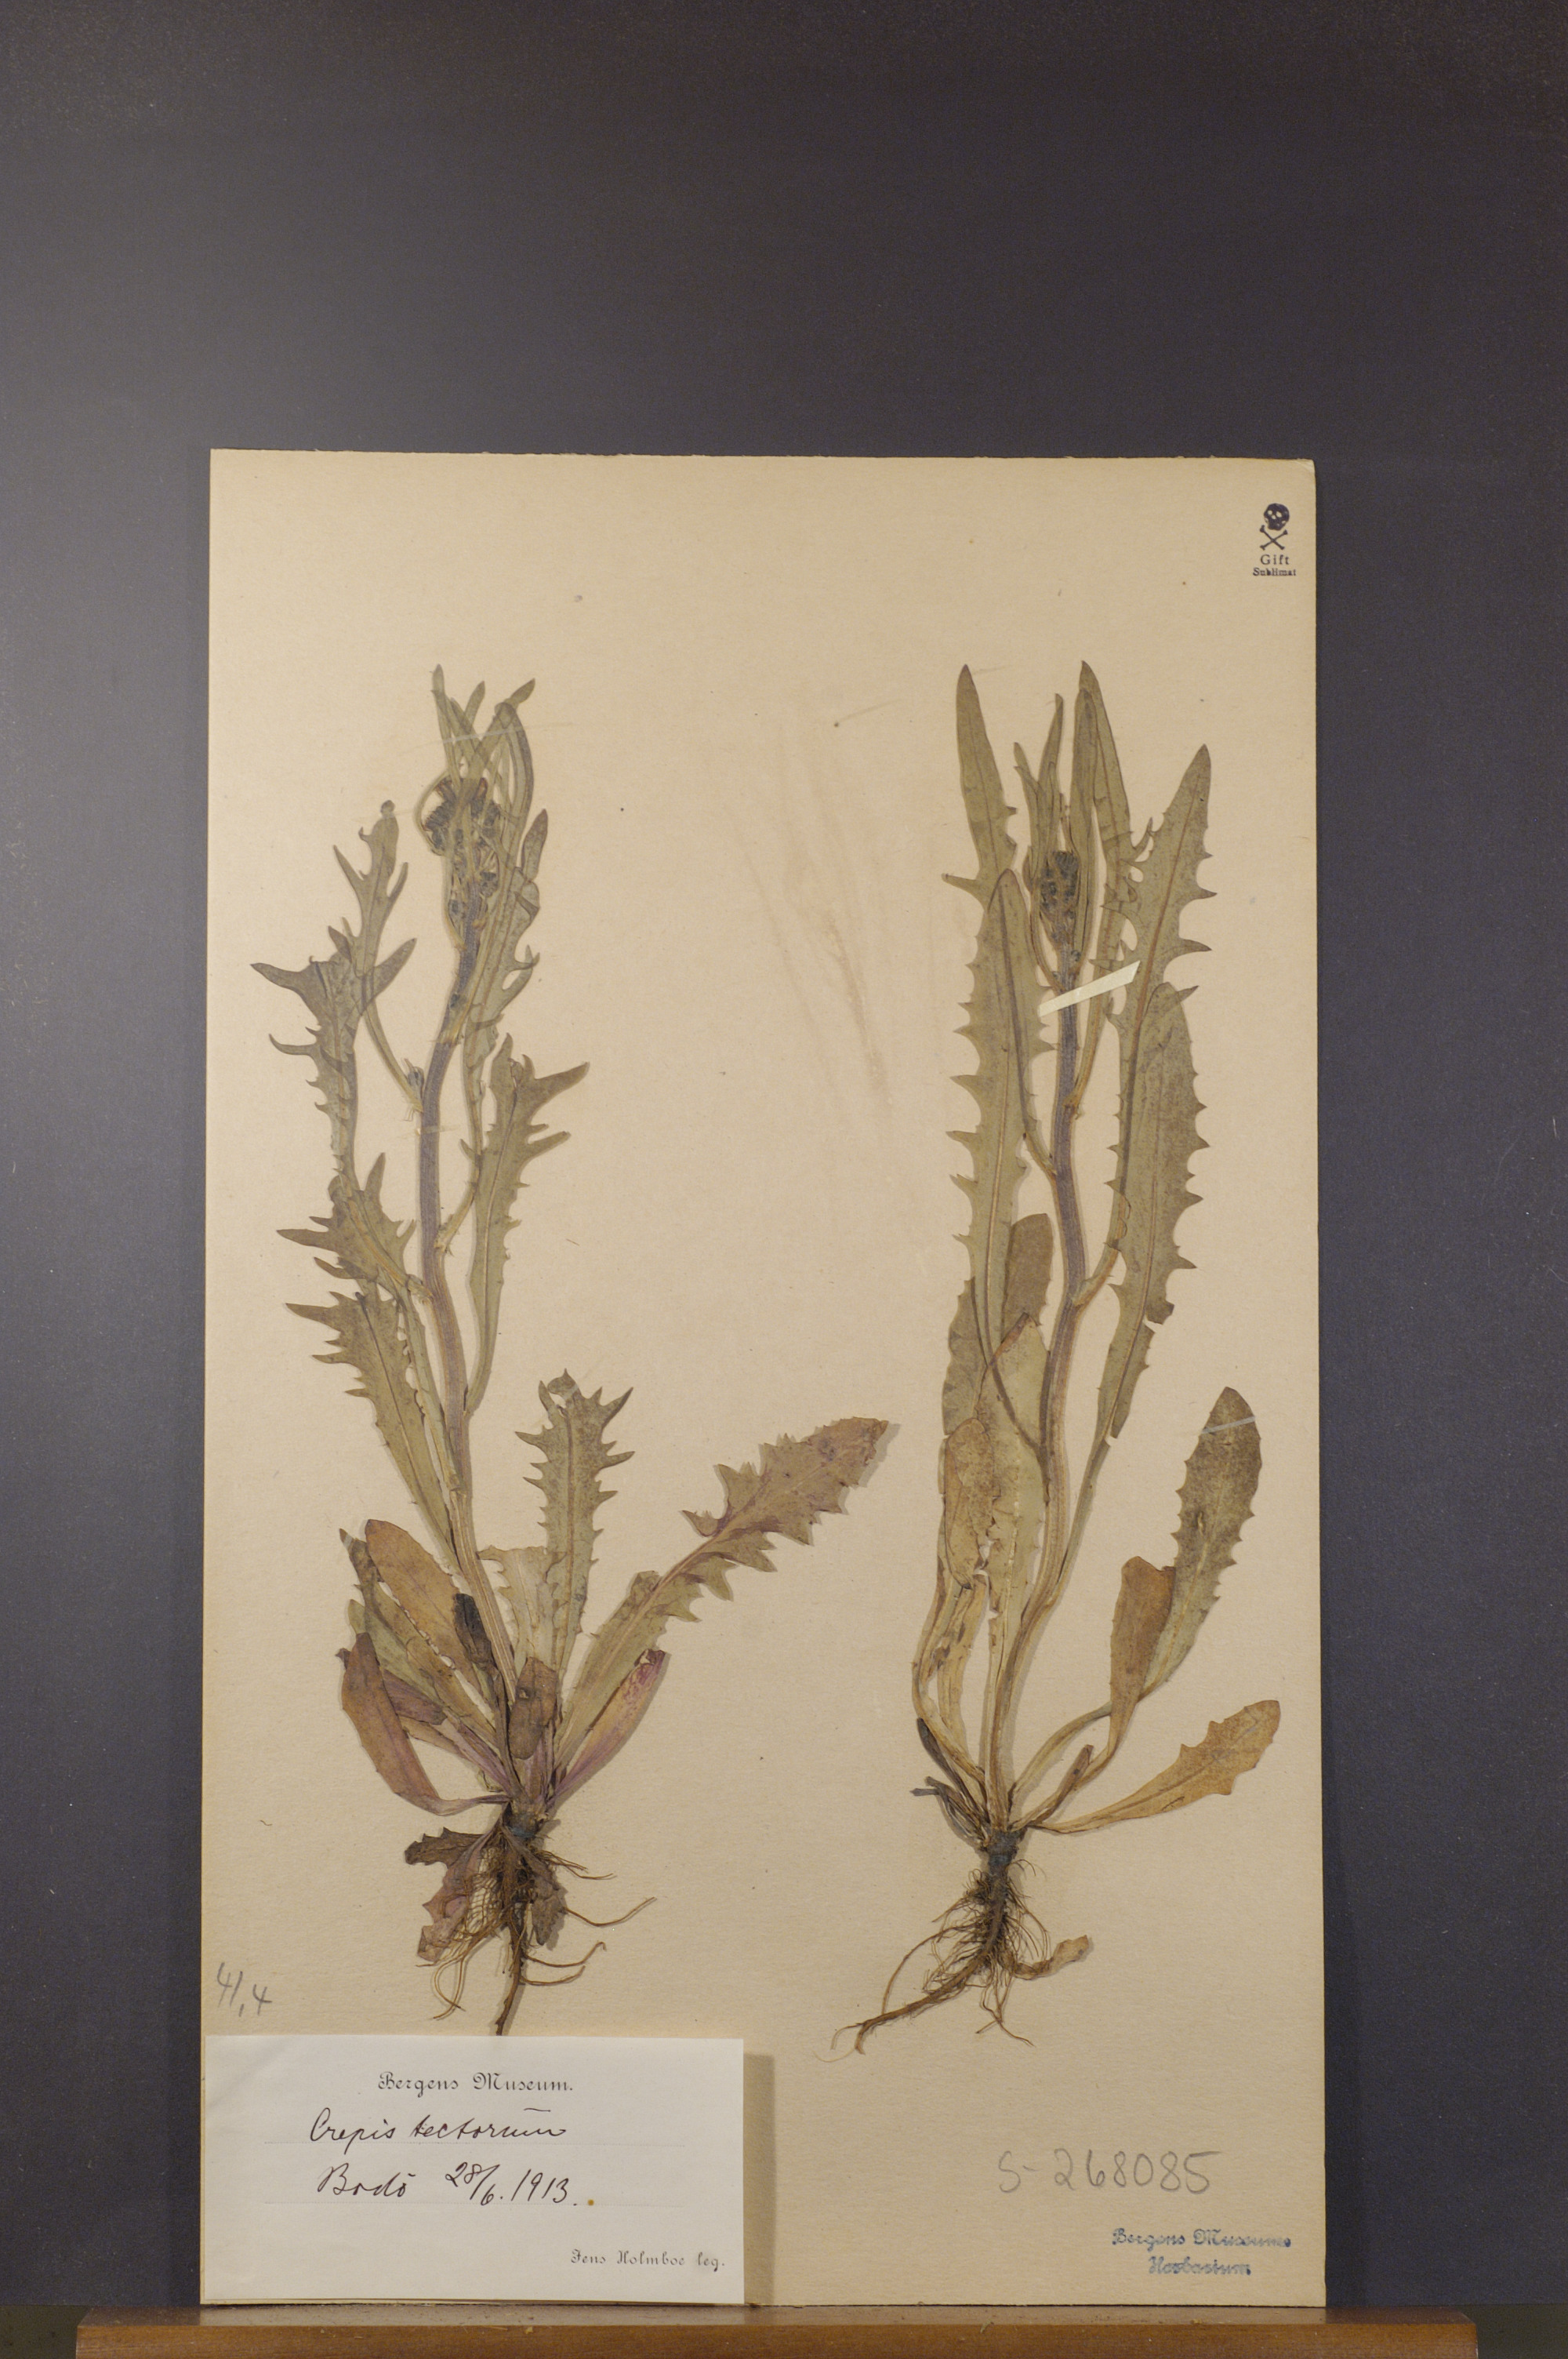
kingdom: Plantae
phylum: Tracheophyta
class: Magnoliopsida
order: Asterales
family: Asteraceae
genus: Crepis
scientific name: Crepis tectorum
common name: Narrow-leaved hawk's-beard
